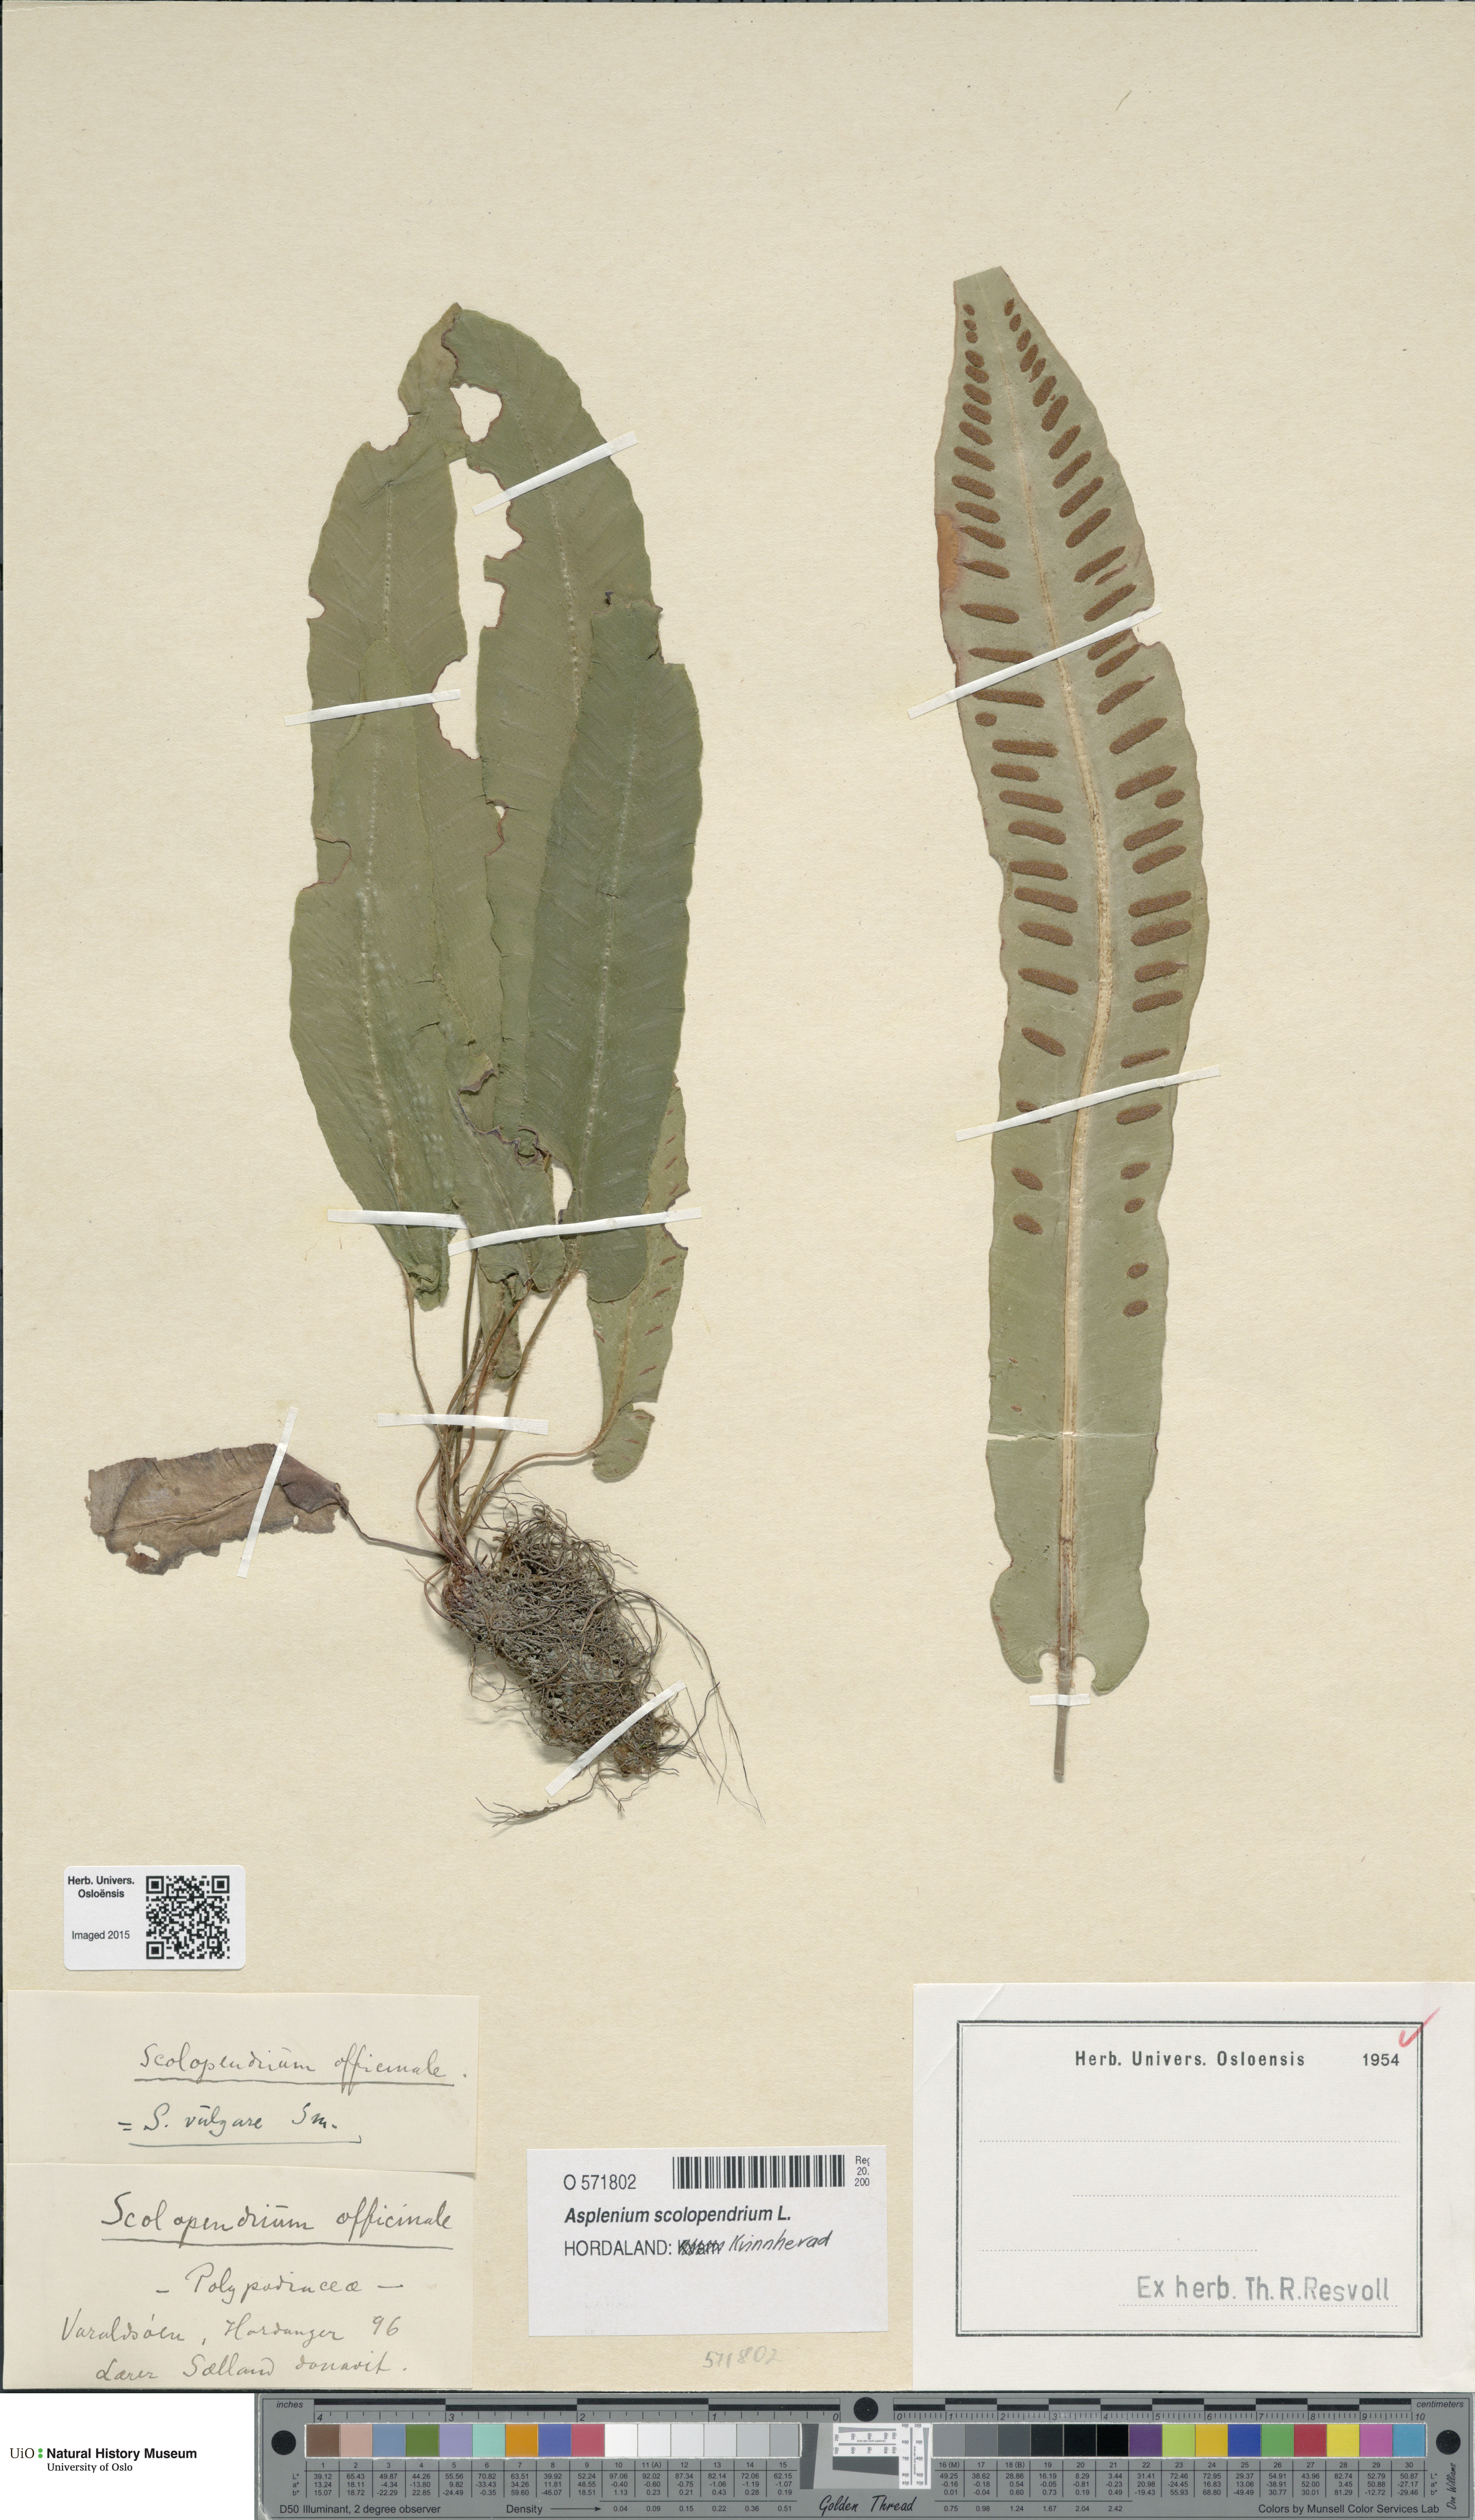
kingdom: Plantae
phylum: Tracheophyta
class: Polypodiopsida
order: Polypodiales
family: Aspleniaceae
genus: Asplenium
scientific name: Asplenium scolopendrium
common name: Hart's-tongue fern
